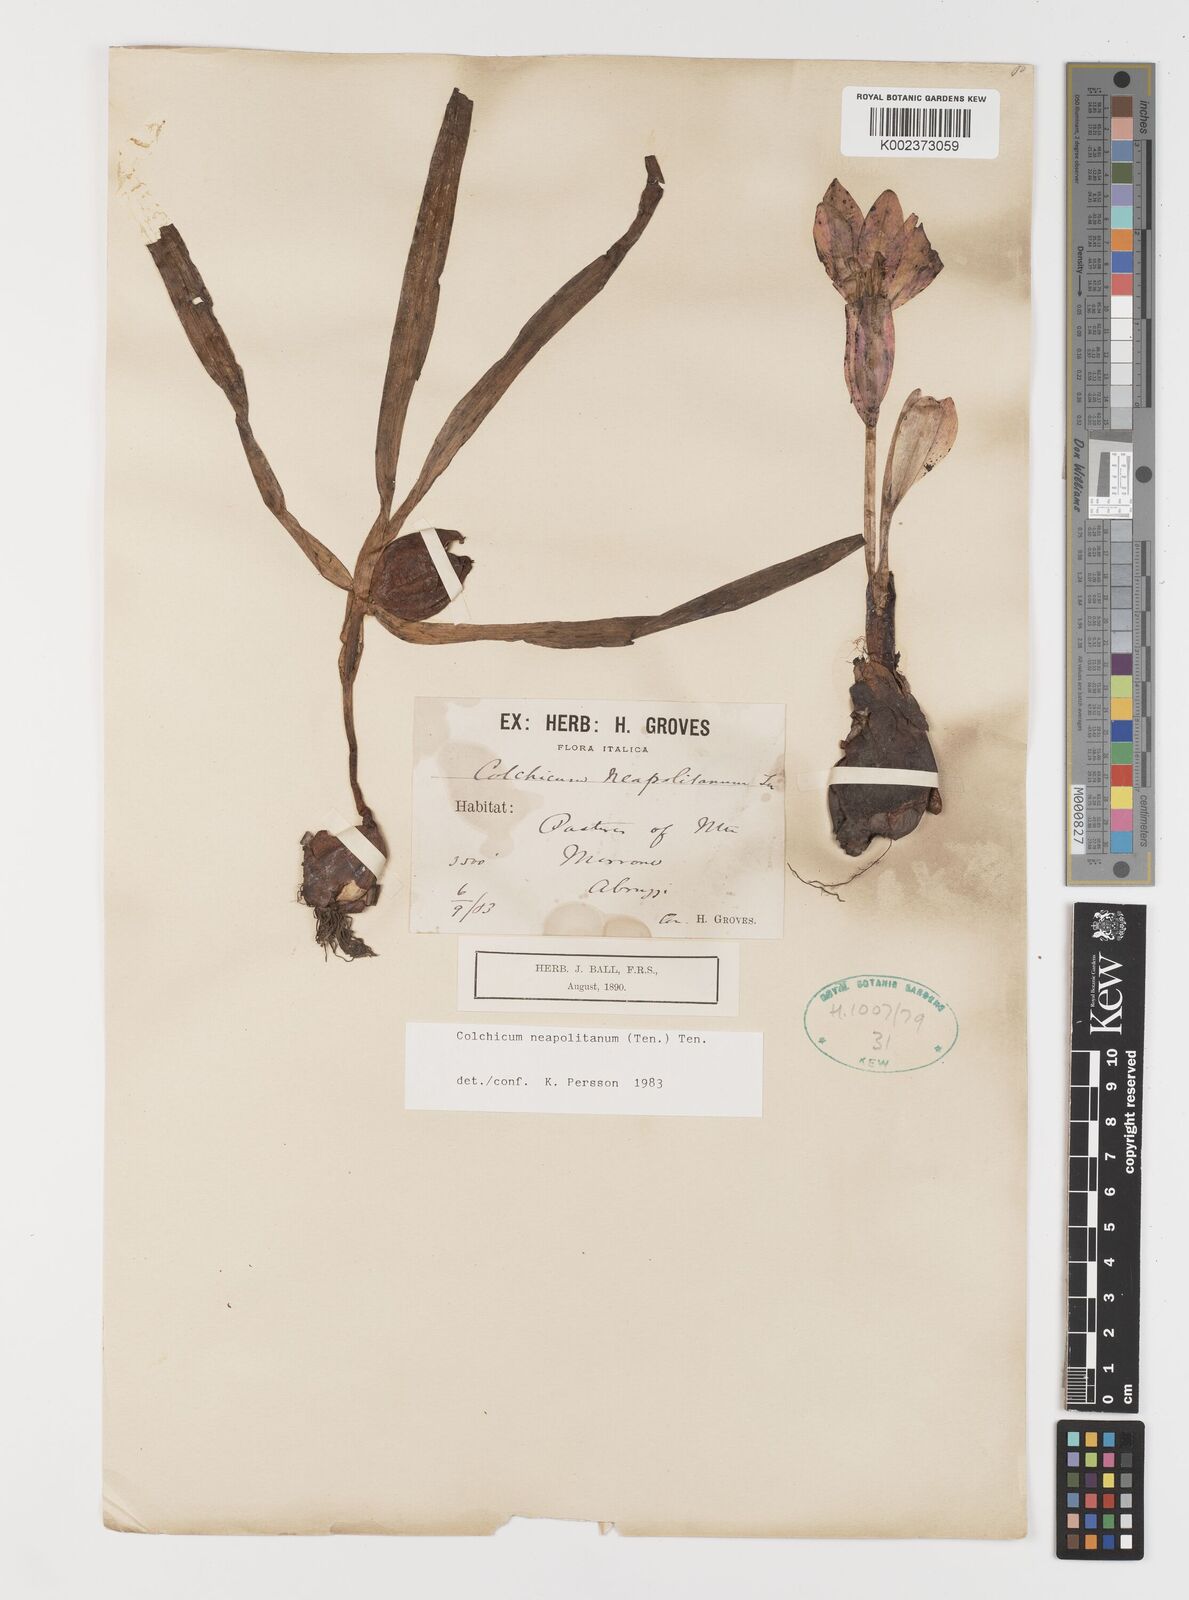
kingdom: Plantae
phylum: Tracheophyta
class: Liliopsida
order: Liliales
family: Colchicaceae
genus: Colchicum
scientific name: Colchicum neapolitanum
